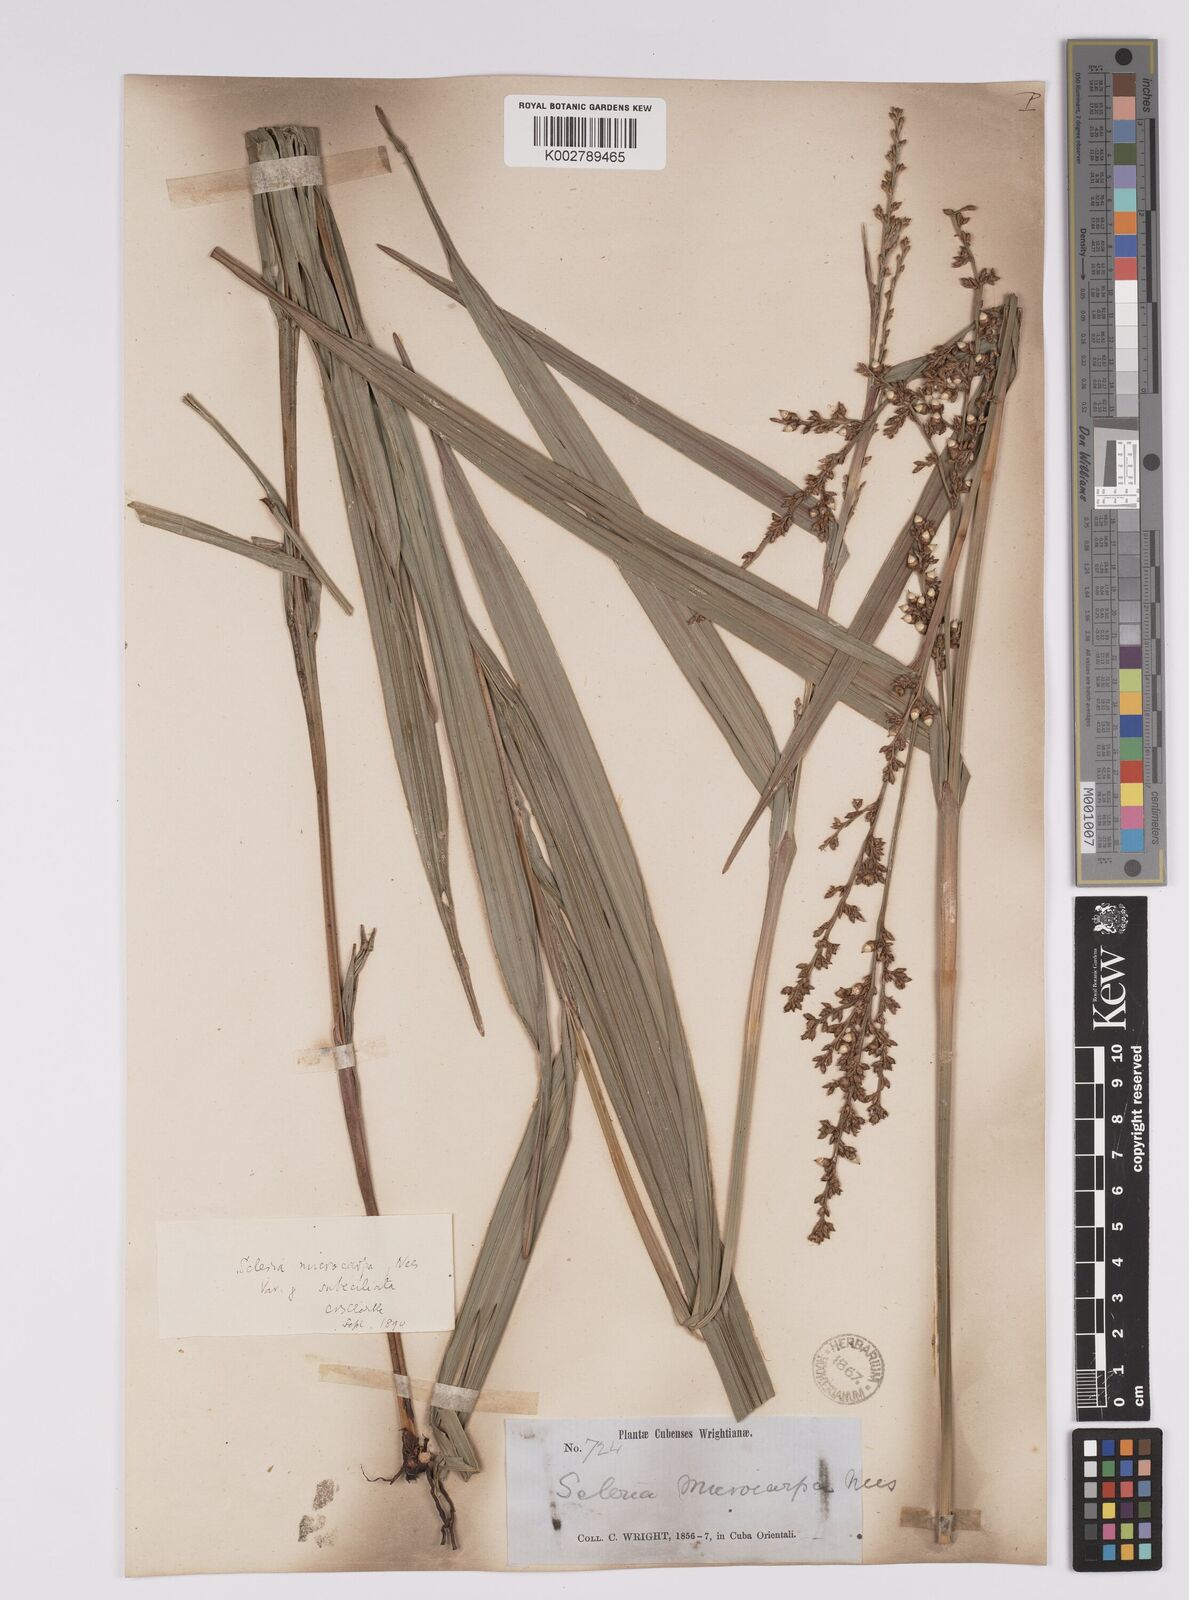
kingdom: Plantae
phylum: Tracheophyta
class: Liliopsida
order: Poales
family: Cyperaceae
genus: Scleria
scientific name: Scleria mucronata
